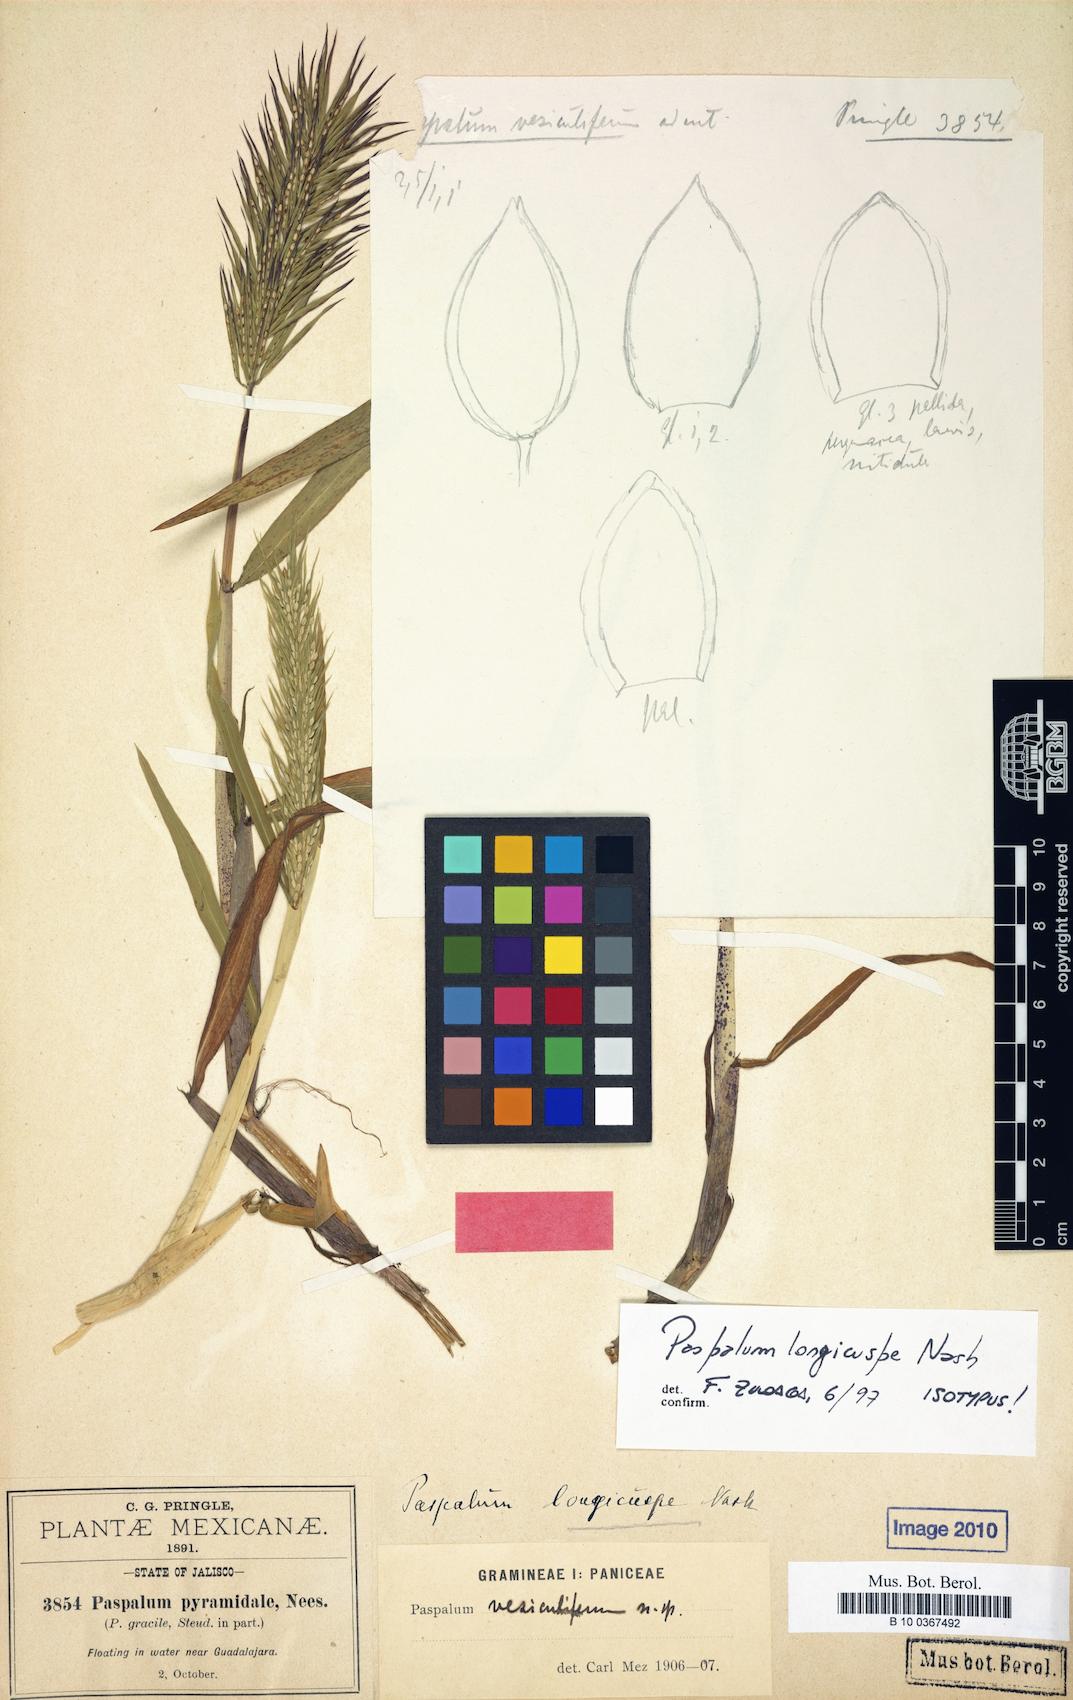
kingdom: Plantae
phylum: Tracheophyta
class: Liliopsida
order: Poales
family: Poaceae
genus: Paspalum
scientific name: Paspalum longicuspe
